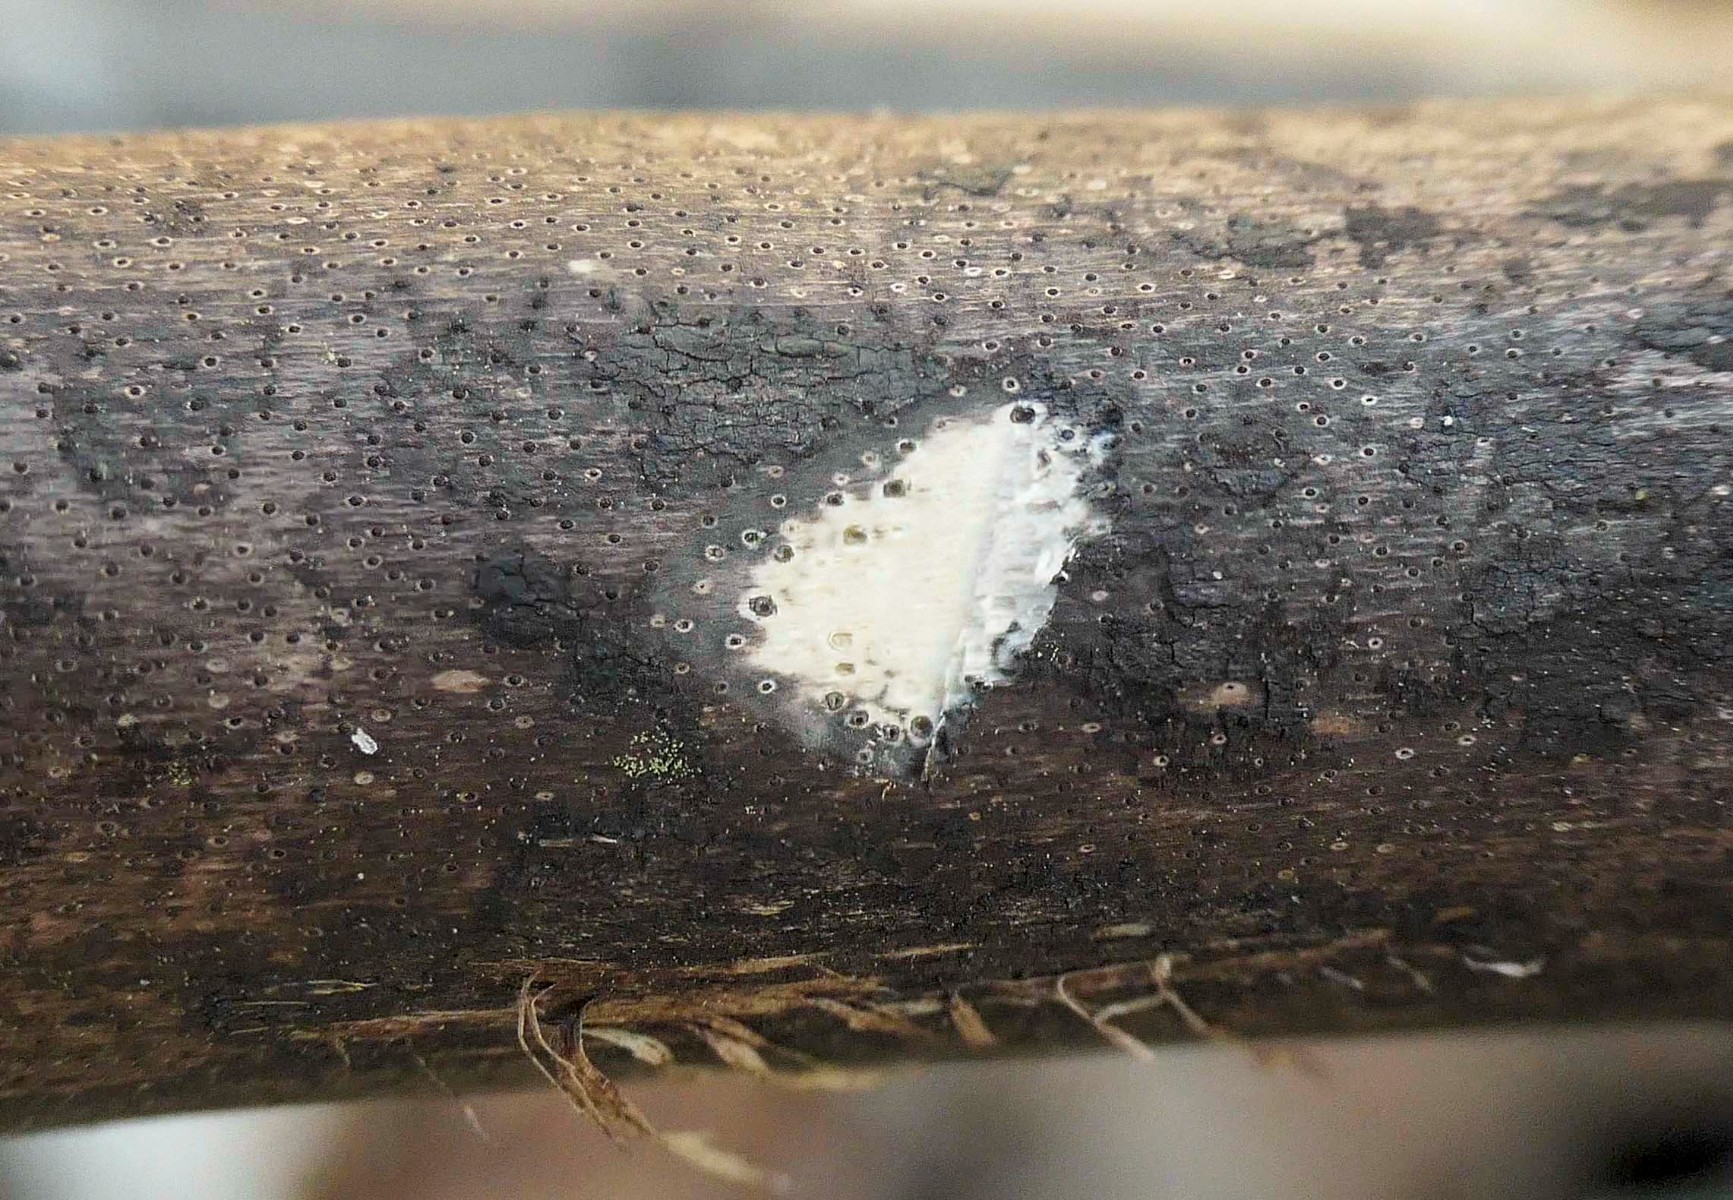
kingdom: Fungi
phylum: Ascomycota
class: Sordariomycetes
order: Xylariales
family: Diatrypaceae
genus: Eutypa
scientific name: Eutypa maura
